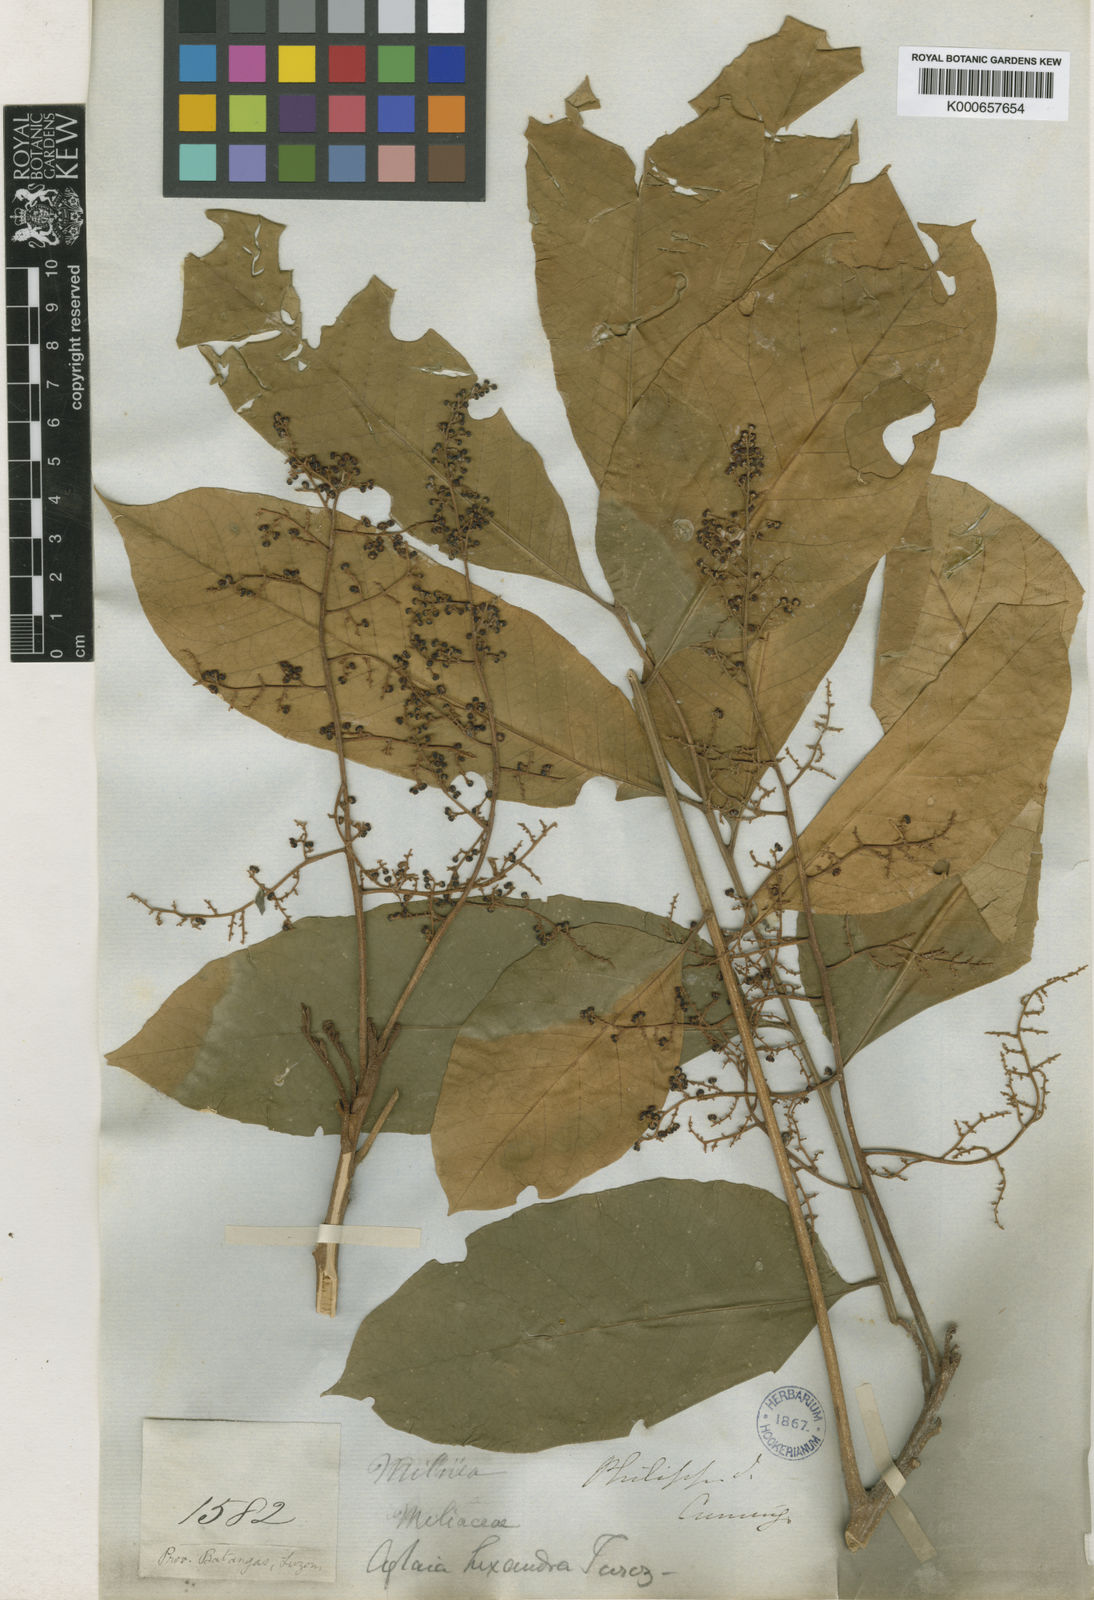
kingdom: Plantae
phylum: Tracheophyta
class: Magnoliopsida
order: Sapindales
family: Meliaceae
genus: Aglaia
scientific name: Aglaia rimosa
